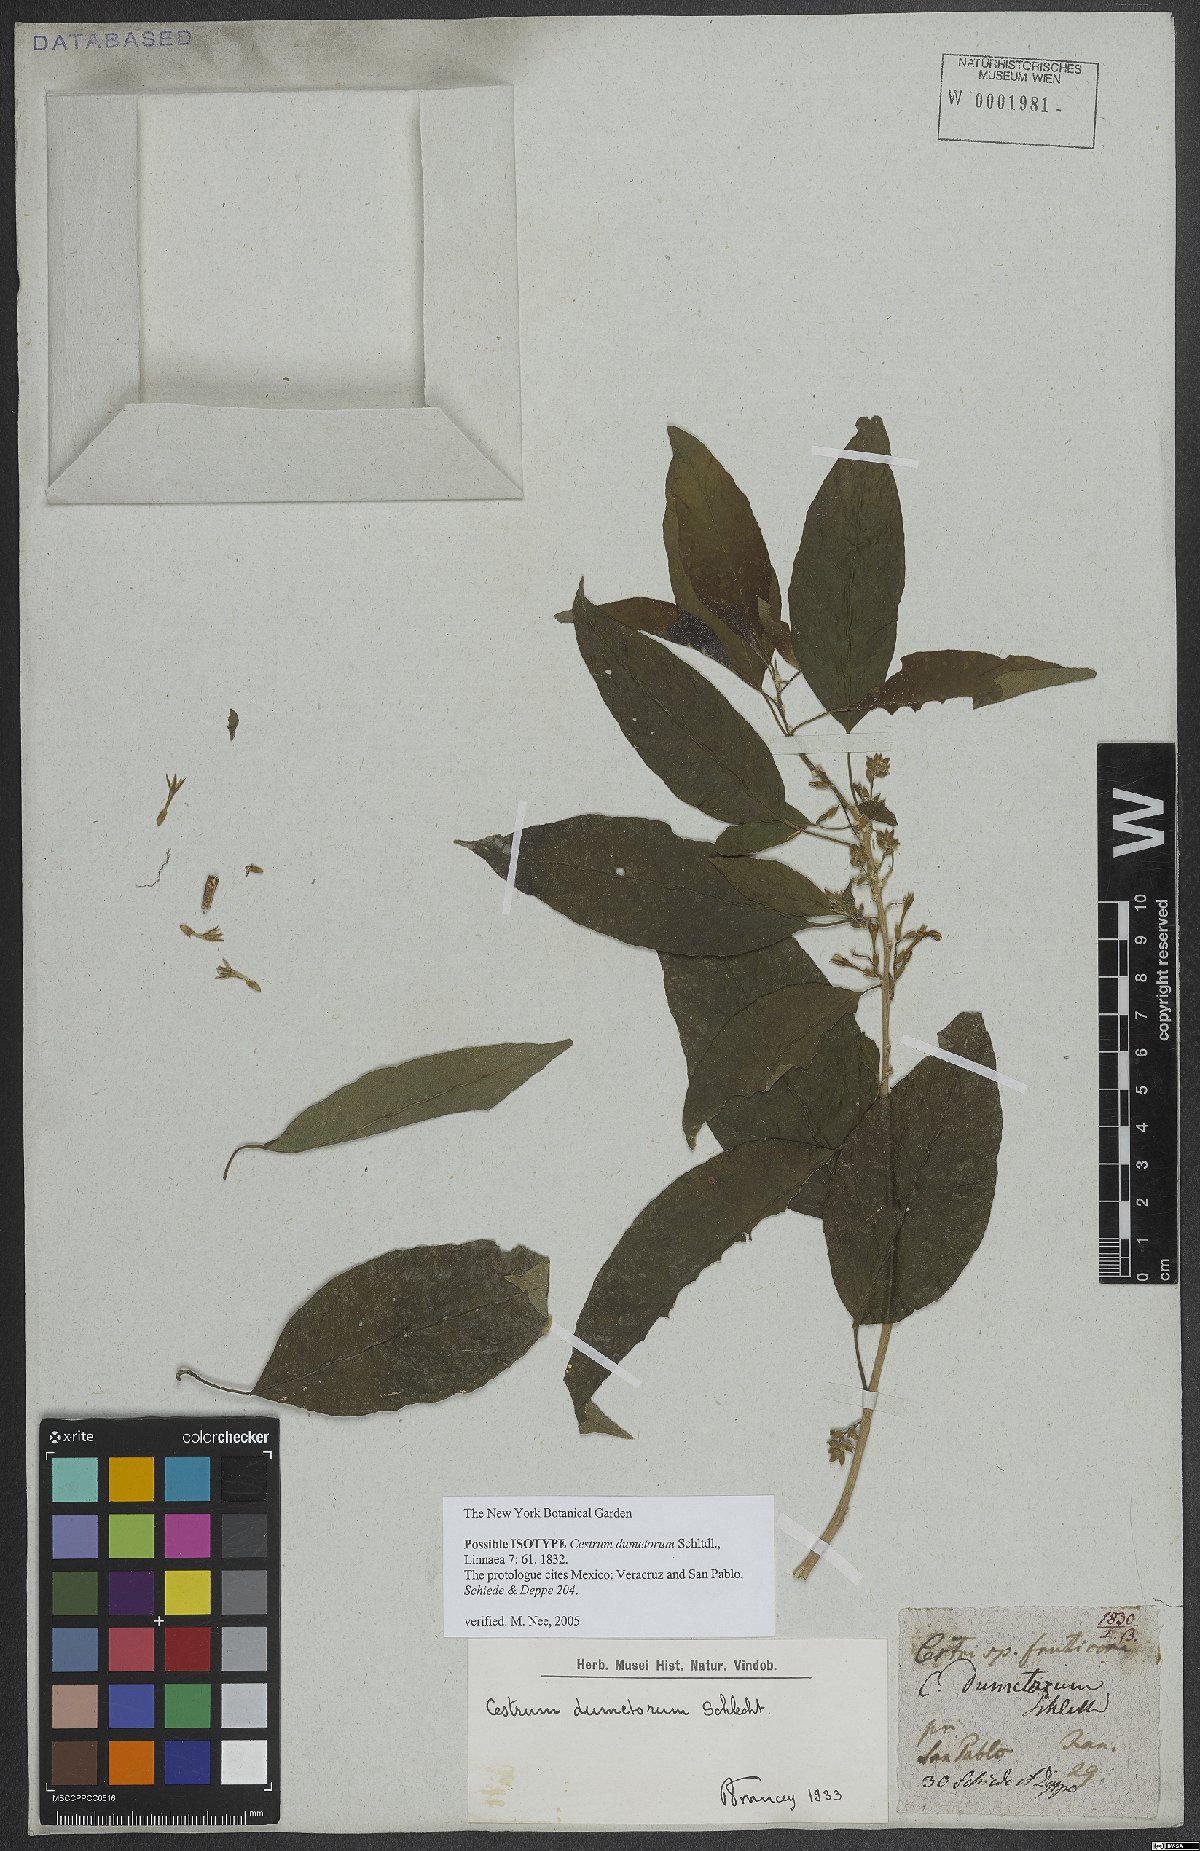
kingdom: Plantae
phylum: Tracheophyta
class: Magnoliopsida
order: Solanales
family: Solanaceae
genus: Cestrum
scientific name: Cestrum dumetorum
